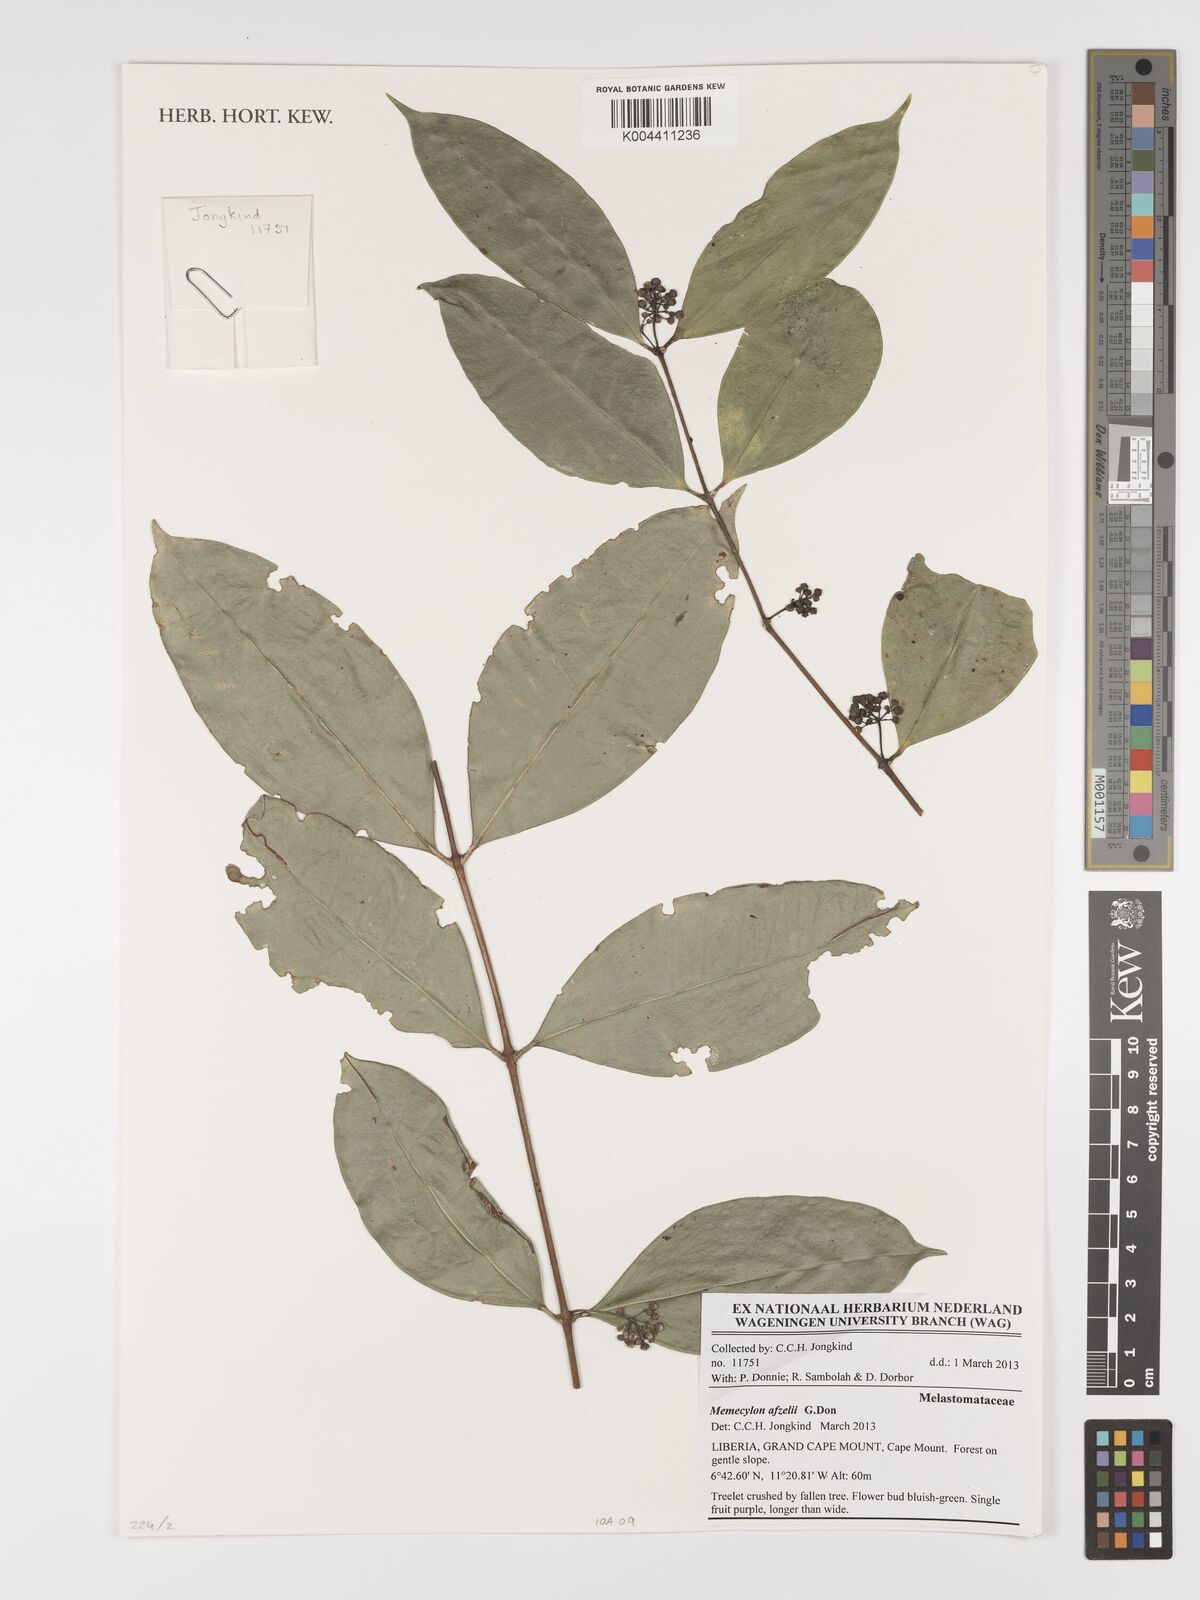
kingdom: Plantae
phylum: Tracheophyta
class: Magnoliopsida
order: Myrtales
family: Melastomataceae
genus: Memecylon
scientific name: Memecylon afzelii
